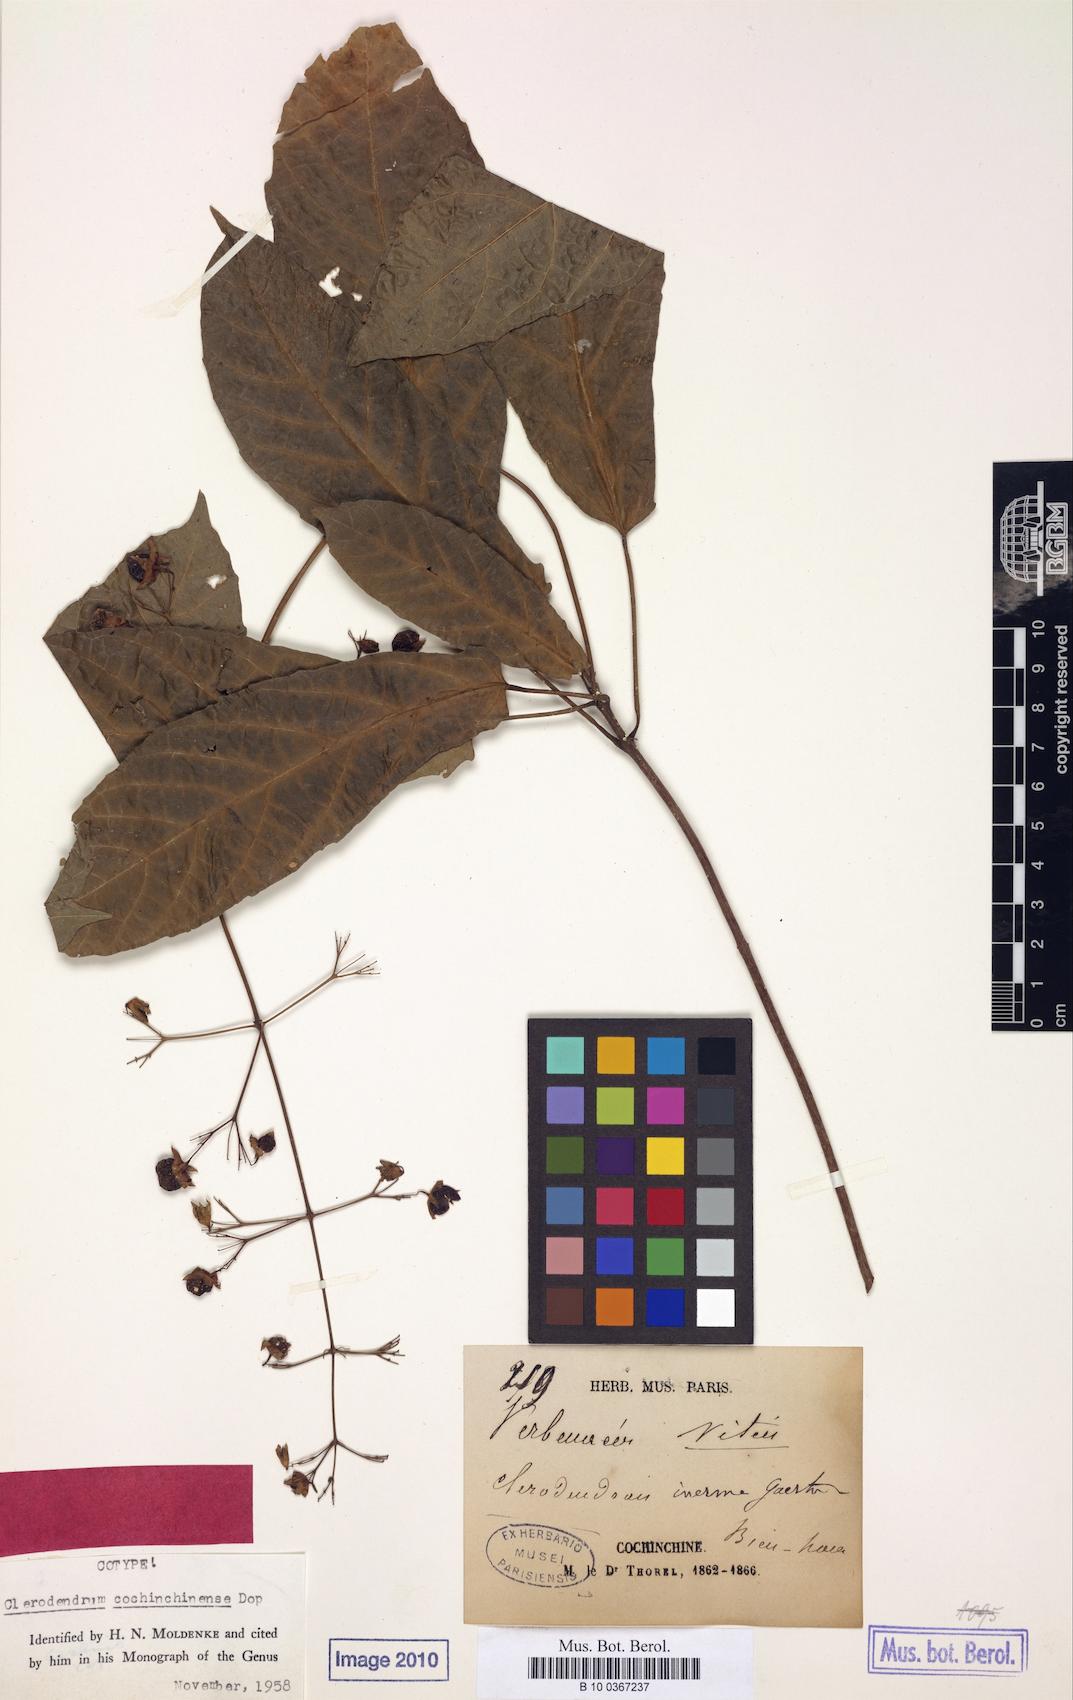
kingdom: Plantae
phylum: Tracheophyta
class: Magnoliopsida
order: Lamiales
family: Lamiaceae
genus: Clerodendrum
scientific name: Clerodendrum cochinchinense
